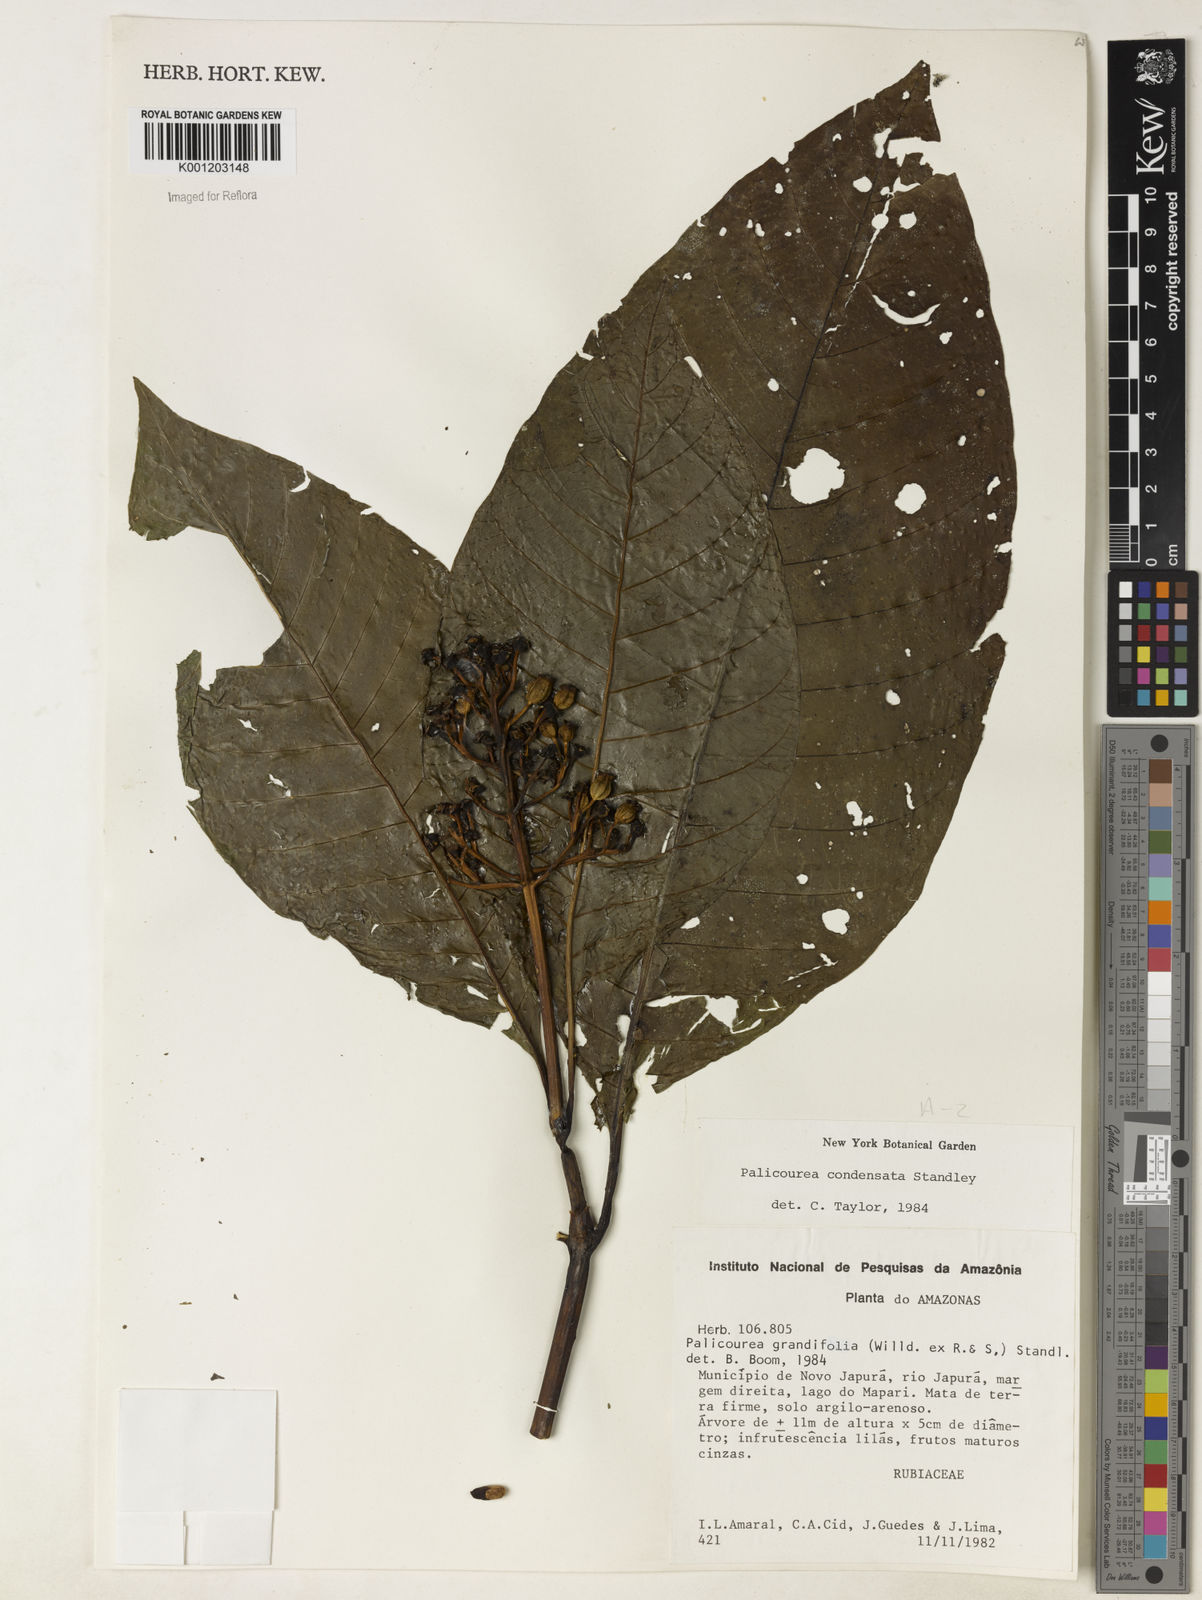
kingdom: Plantae
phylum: Tracheophyta
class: Magnoliopsida
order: Gentianales
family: Rubiaceae
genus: Palicourea
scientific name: Palicourea lasiantha
